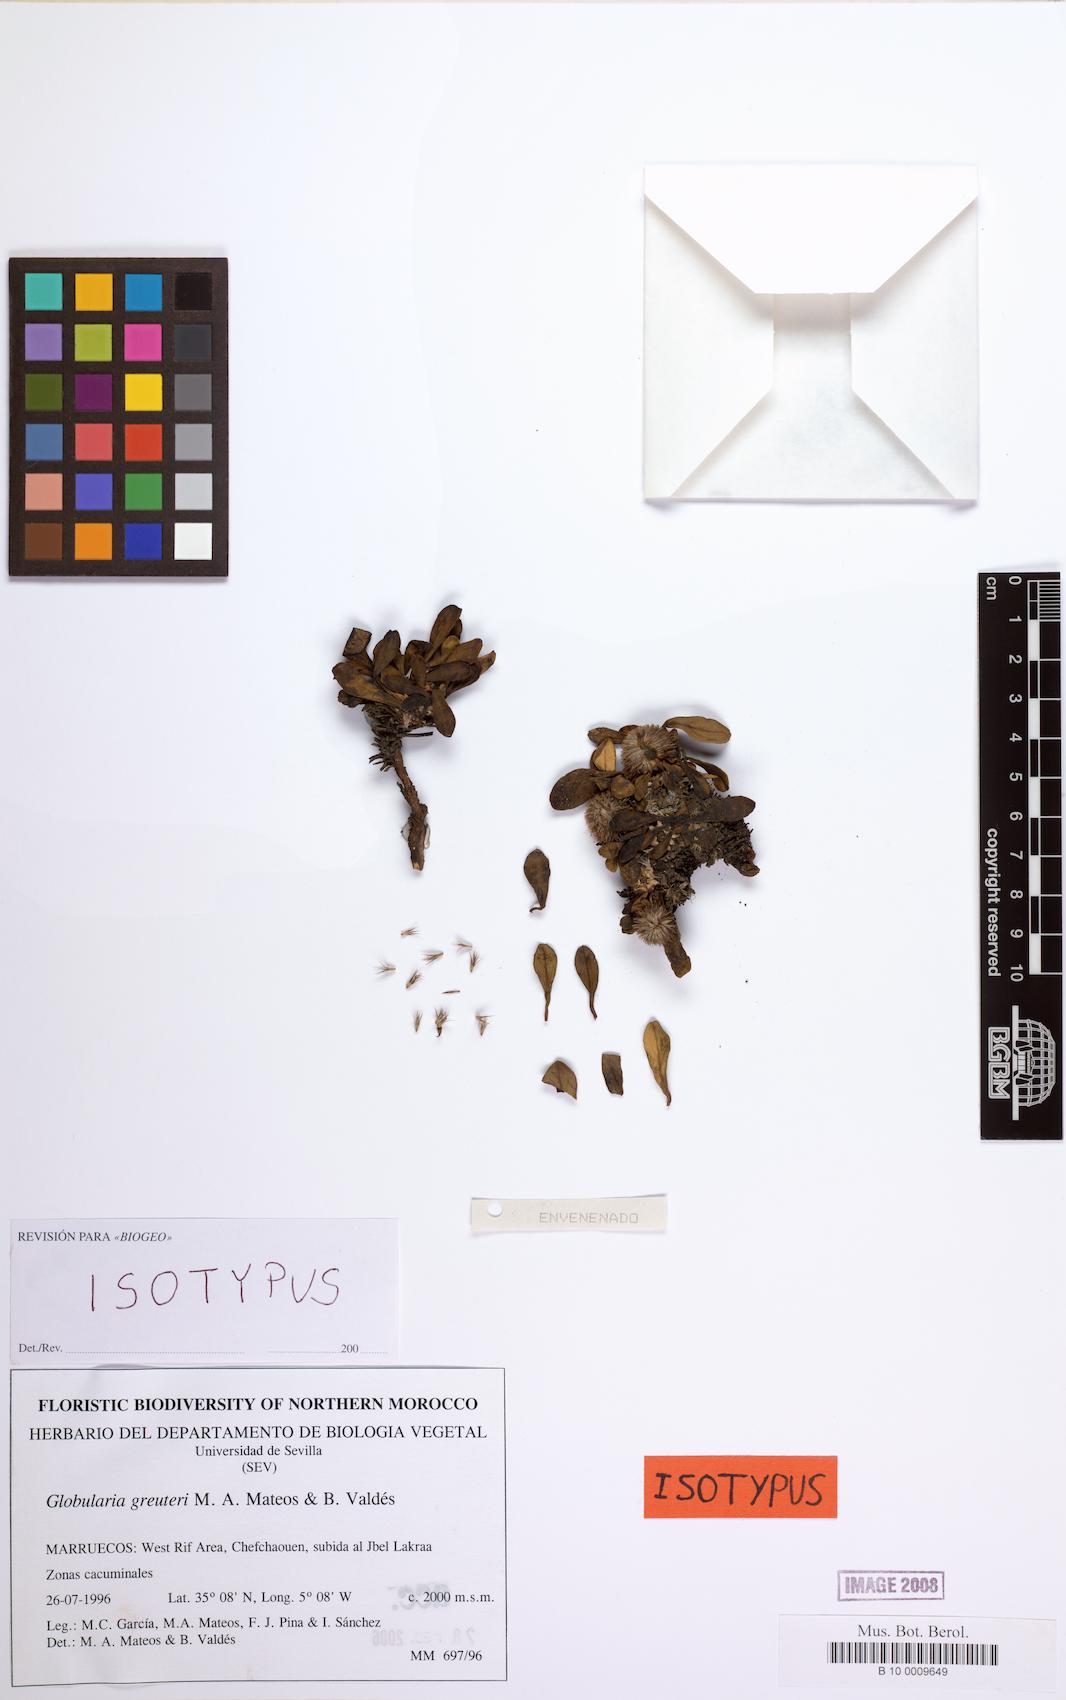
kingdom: Plantae
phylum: Tracheophyta
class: Magnoliopsida
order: Lamiales
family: Plantaginaceae
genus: Globularia
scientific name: Globularia liouvillei
